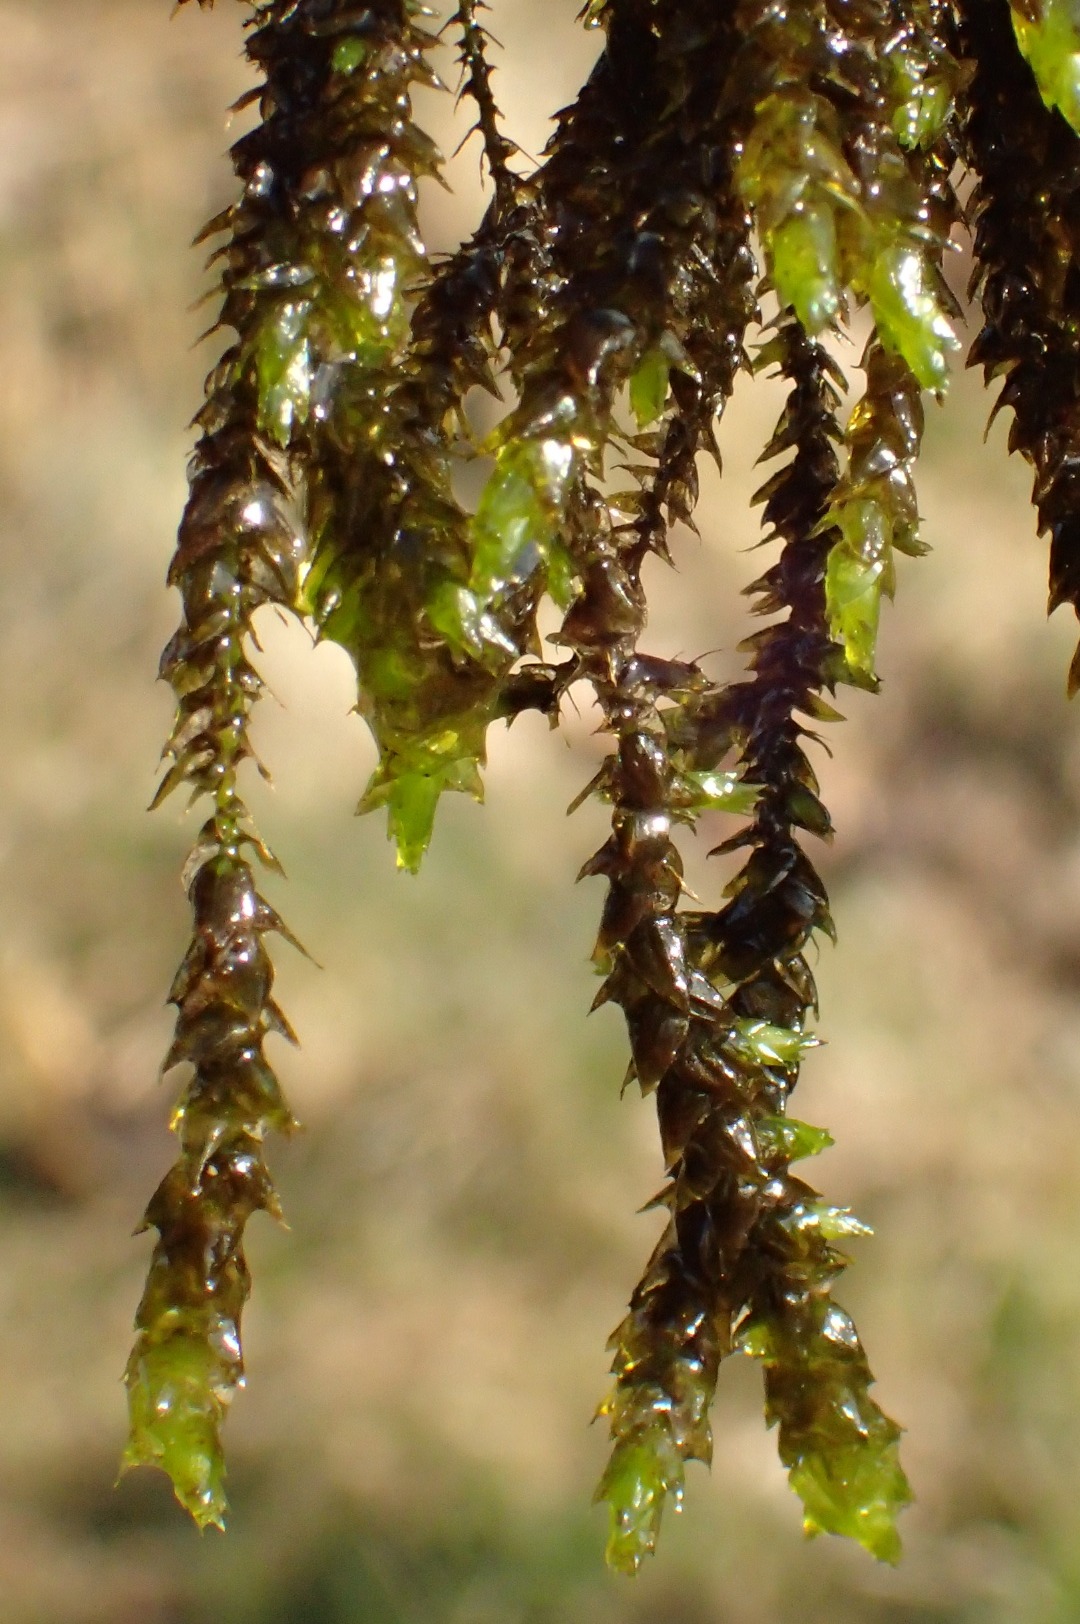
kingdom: Plantae
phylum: Bryophyta
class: Bryopsida
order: Hypnales
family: Brachytheciaceae
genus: Rhynchostegium
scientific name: Rhynchostegium riparioides
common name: Robust strømmos
